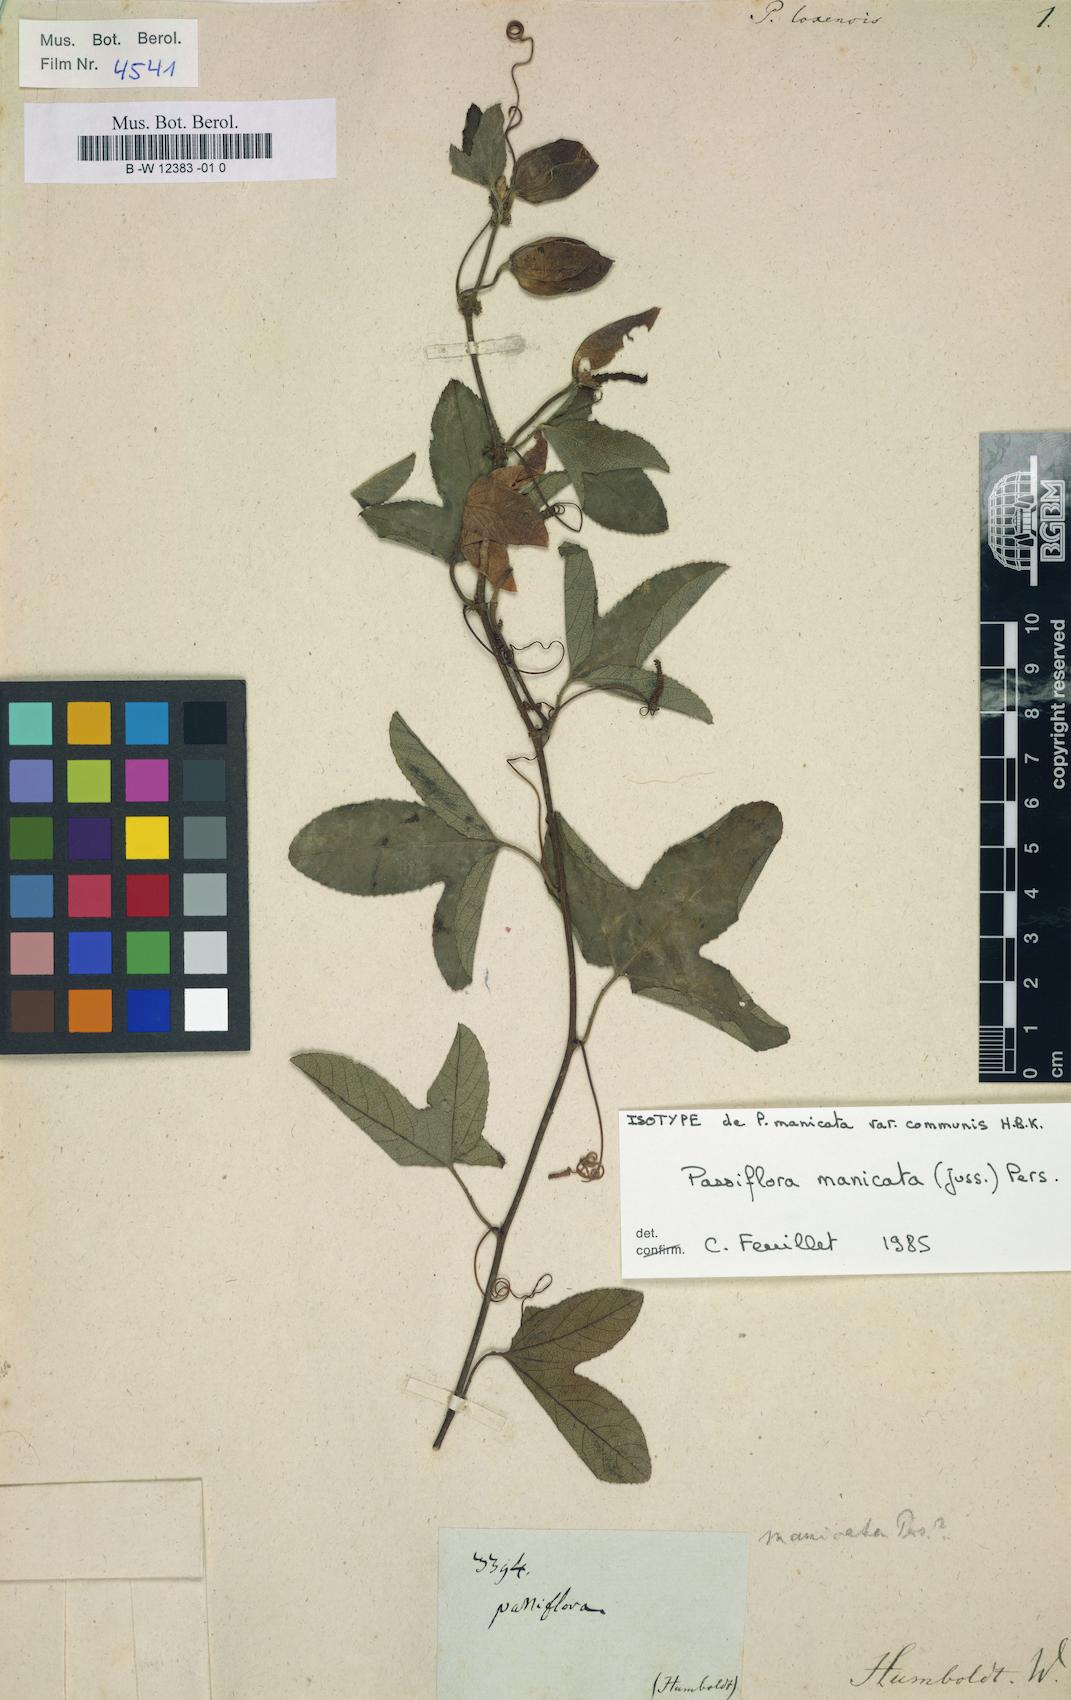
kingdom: Plantae
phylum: Tracheophyta
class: Magnoliopsida
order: Malpighiales
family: Passifloraceae
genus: Passiflora
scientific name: Passiflora loxensis
